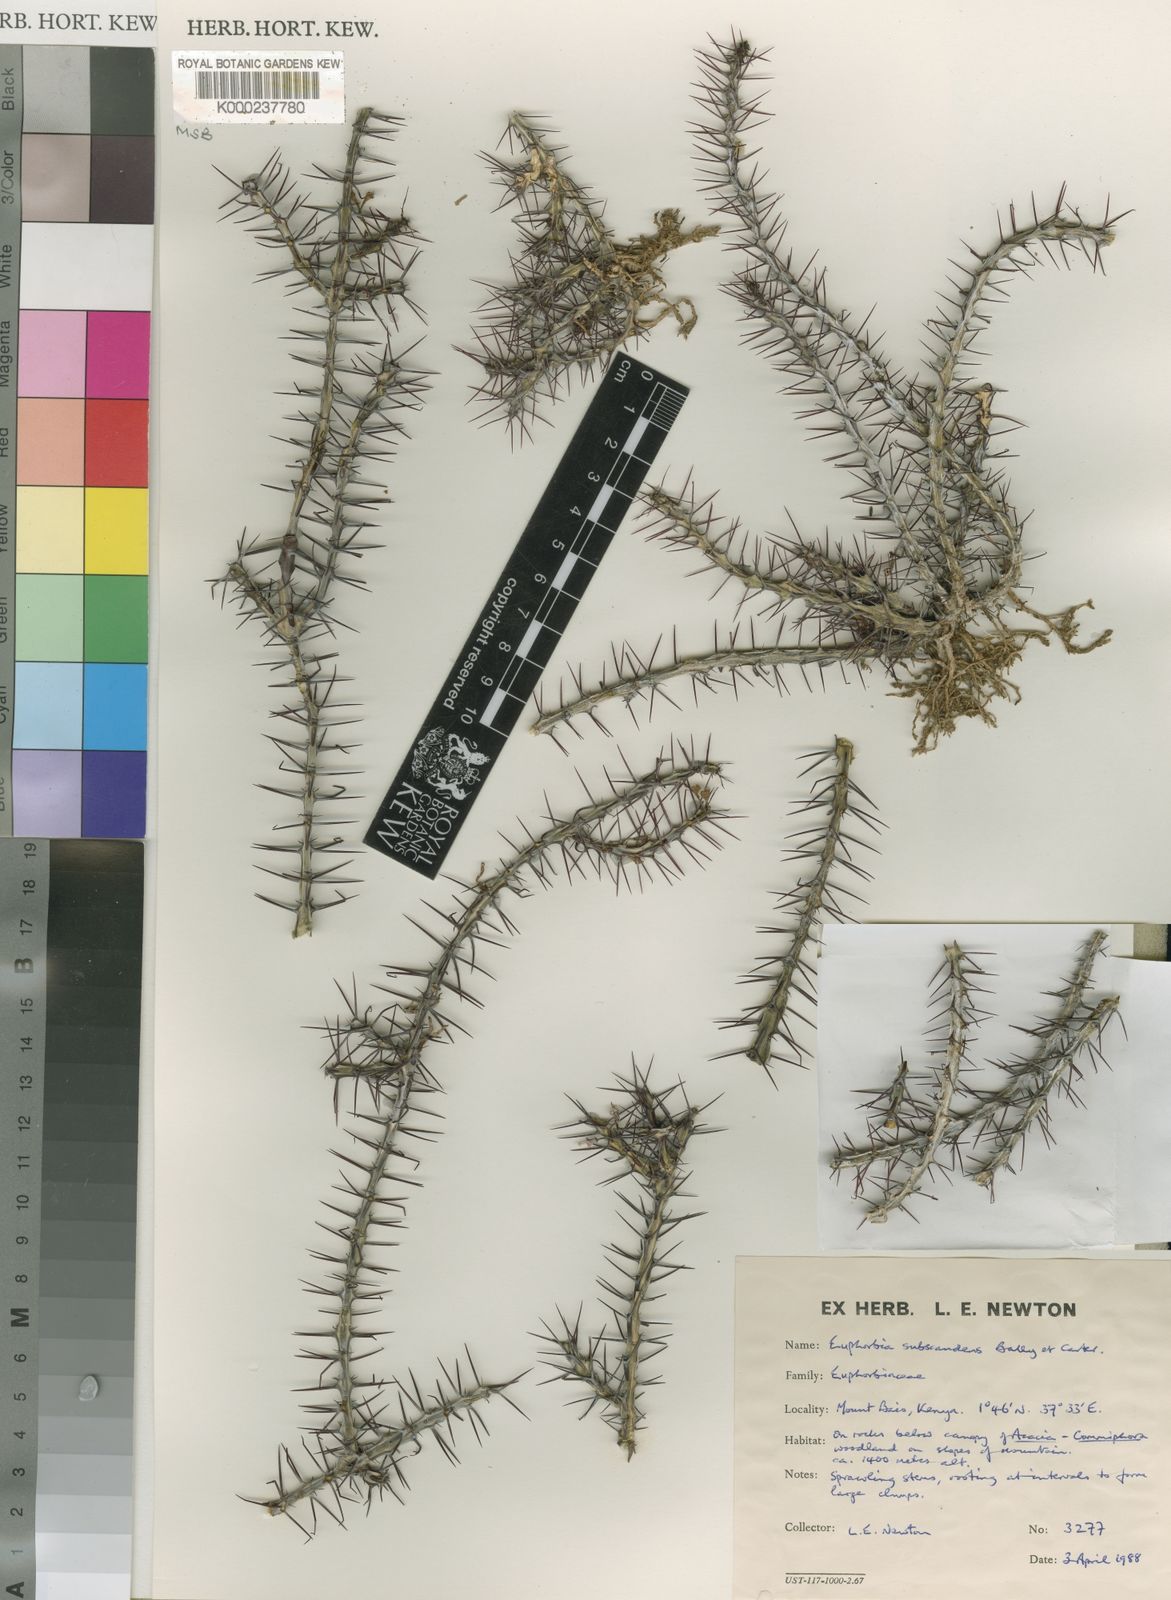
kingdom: Plantae
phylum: Tracheophyta
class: Magnoliopsida
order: Malpighiales
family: Euphorbiaceae
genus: Euphorbia
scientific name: Euphorbia subscandens
